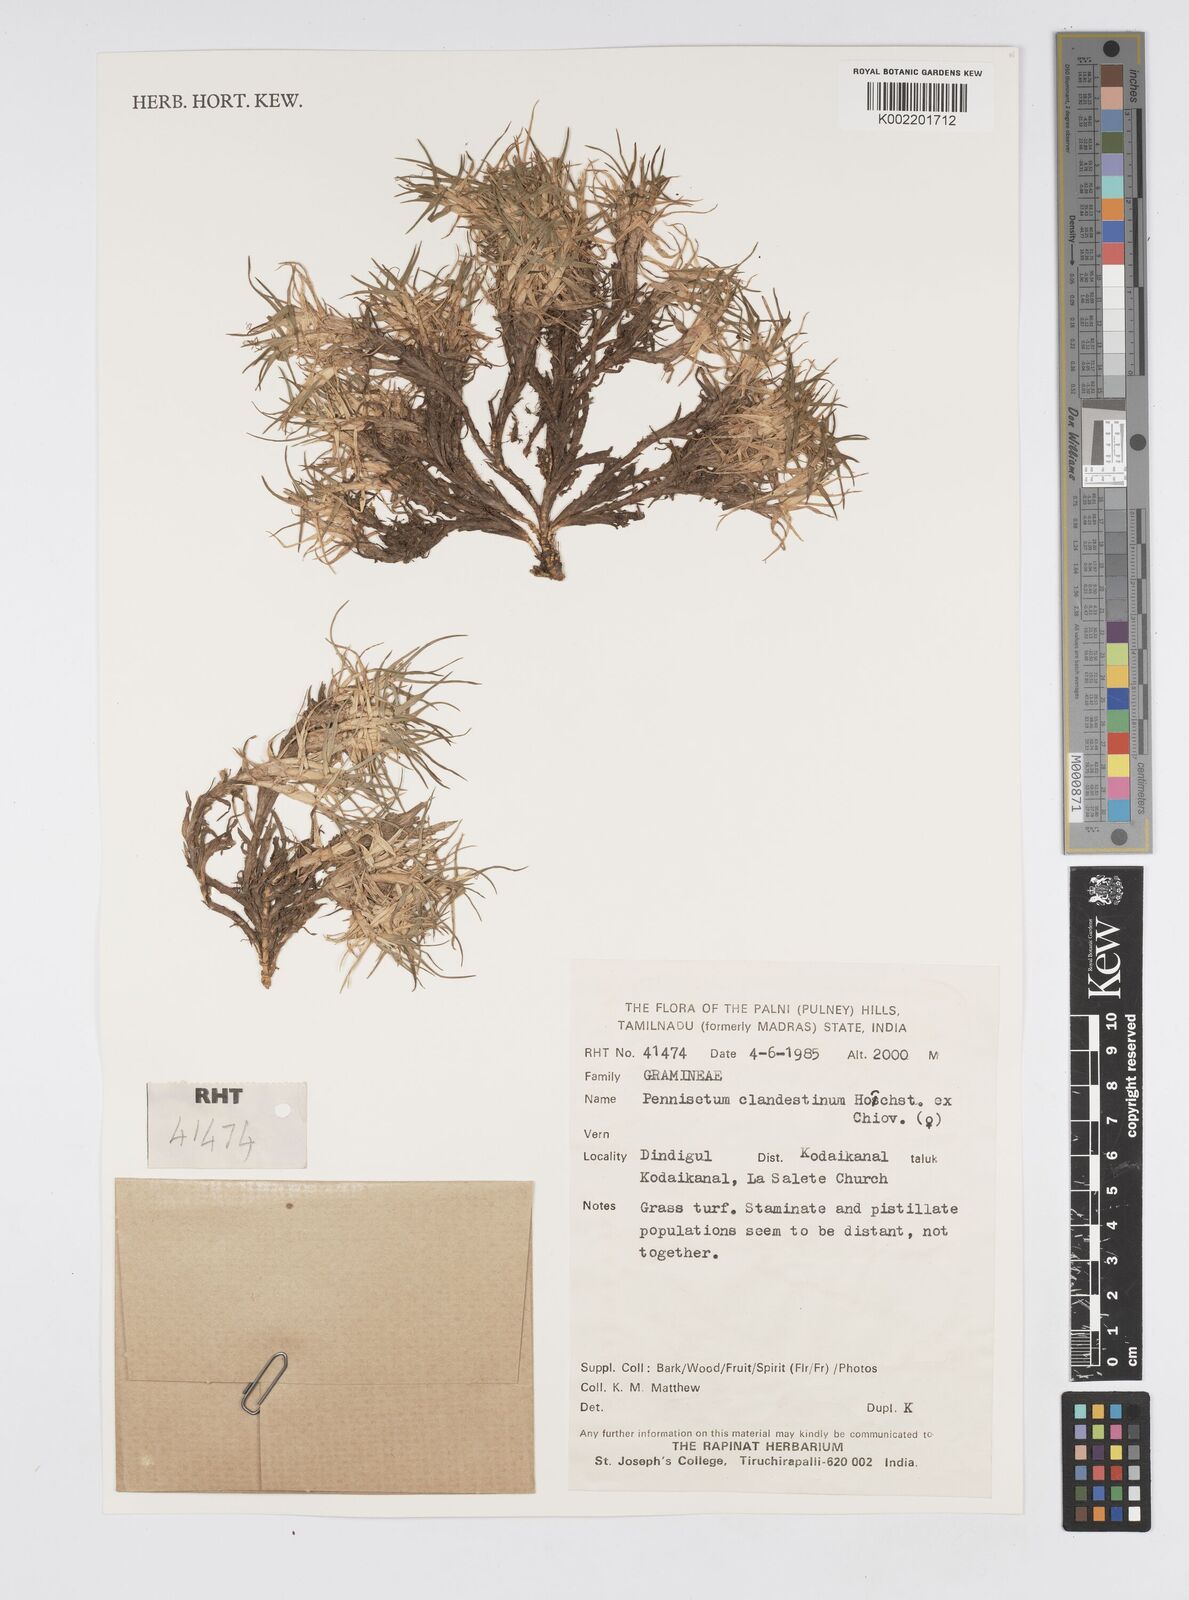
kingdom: Plantae
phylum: Tracheophyta
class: Liliopsida
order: Poales
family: Poaceae
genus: Cenchrus
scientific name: Cenchrus clandestinus
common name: Kikuyugrass
